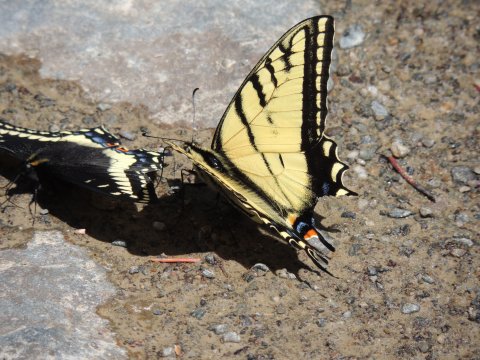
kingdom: Animalia
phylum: Arthropoda
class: Insecta
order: Lepidoptera
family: Papilionidae
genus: Papilio
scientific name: Papilio multicaudata
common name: Two-tailed Swallowtail
